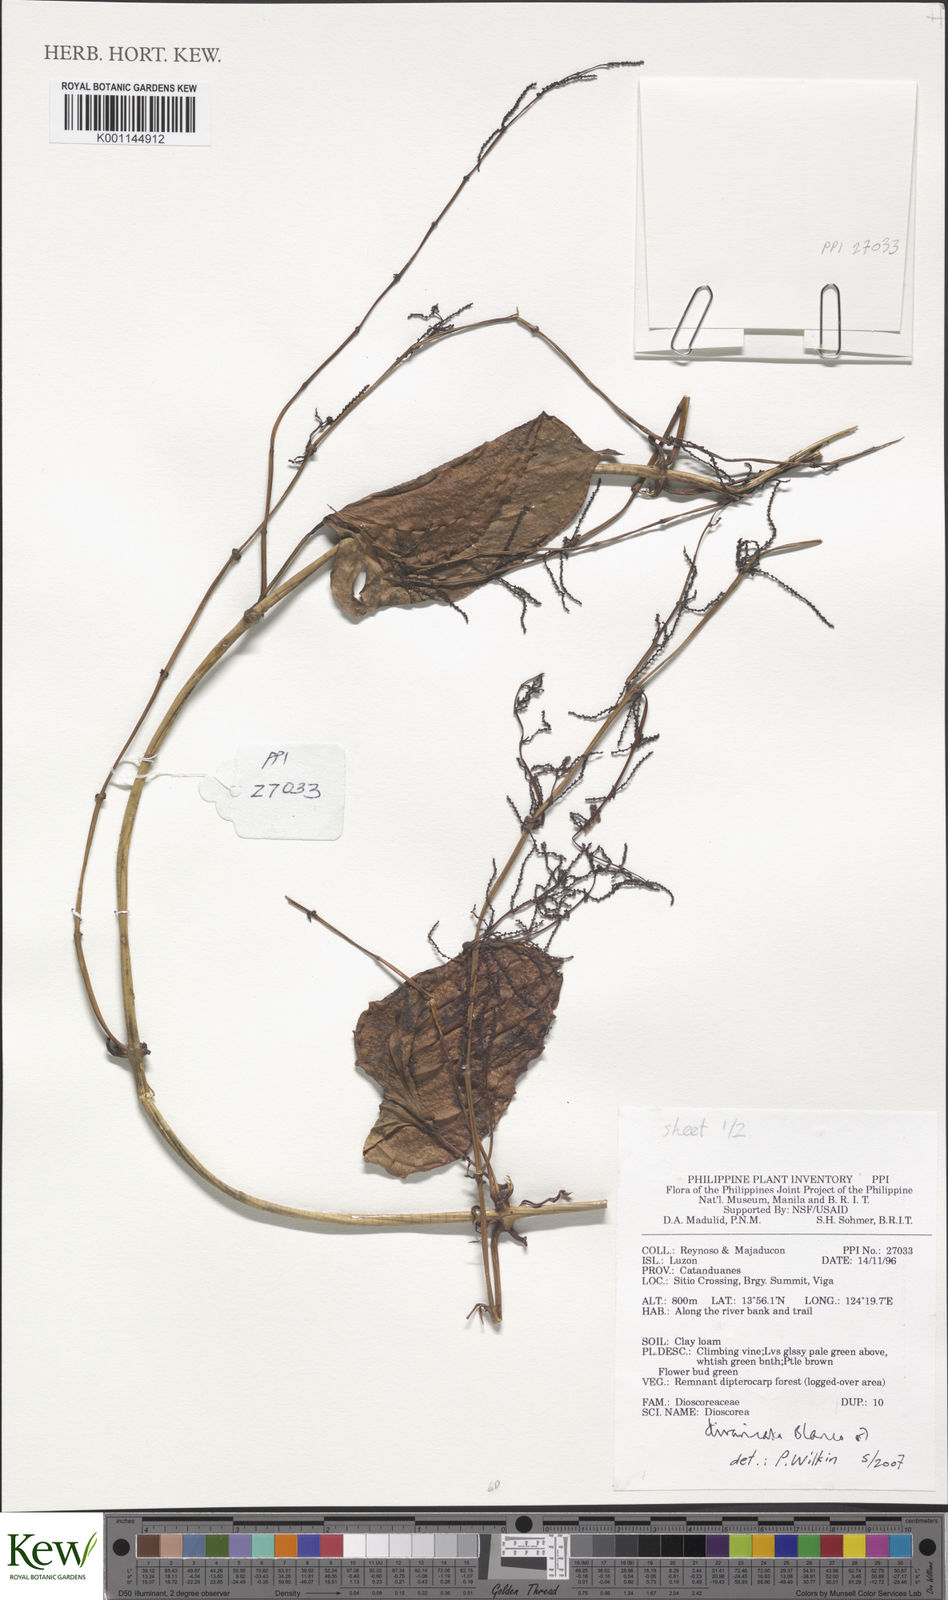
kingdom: Plantae
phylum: Tracheophyta
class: Liliopsida
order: Dioscoreales
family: Dioscoreaceae
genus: Dioscorea
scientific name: Dioscorea divaricata
